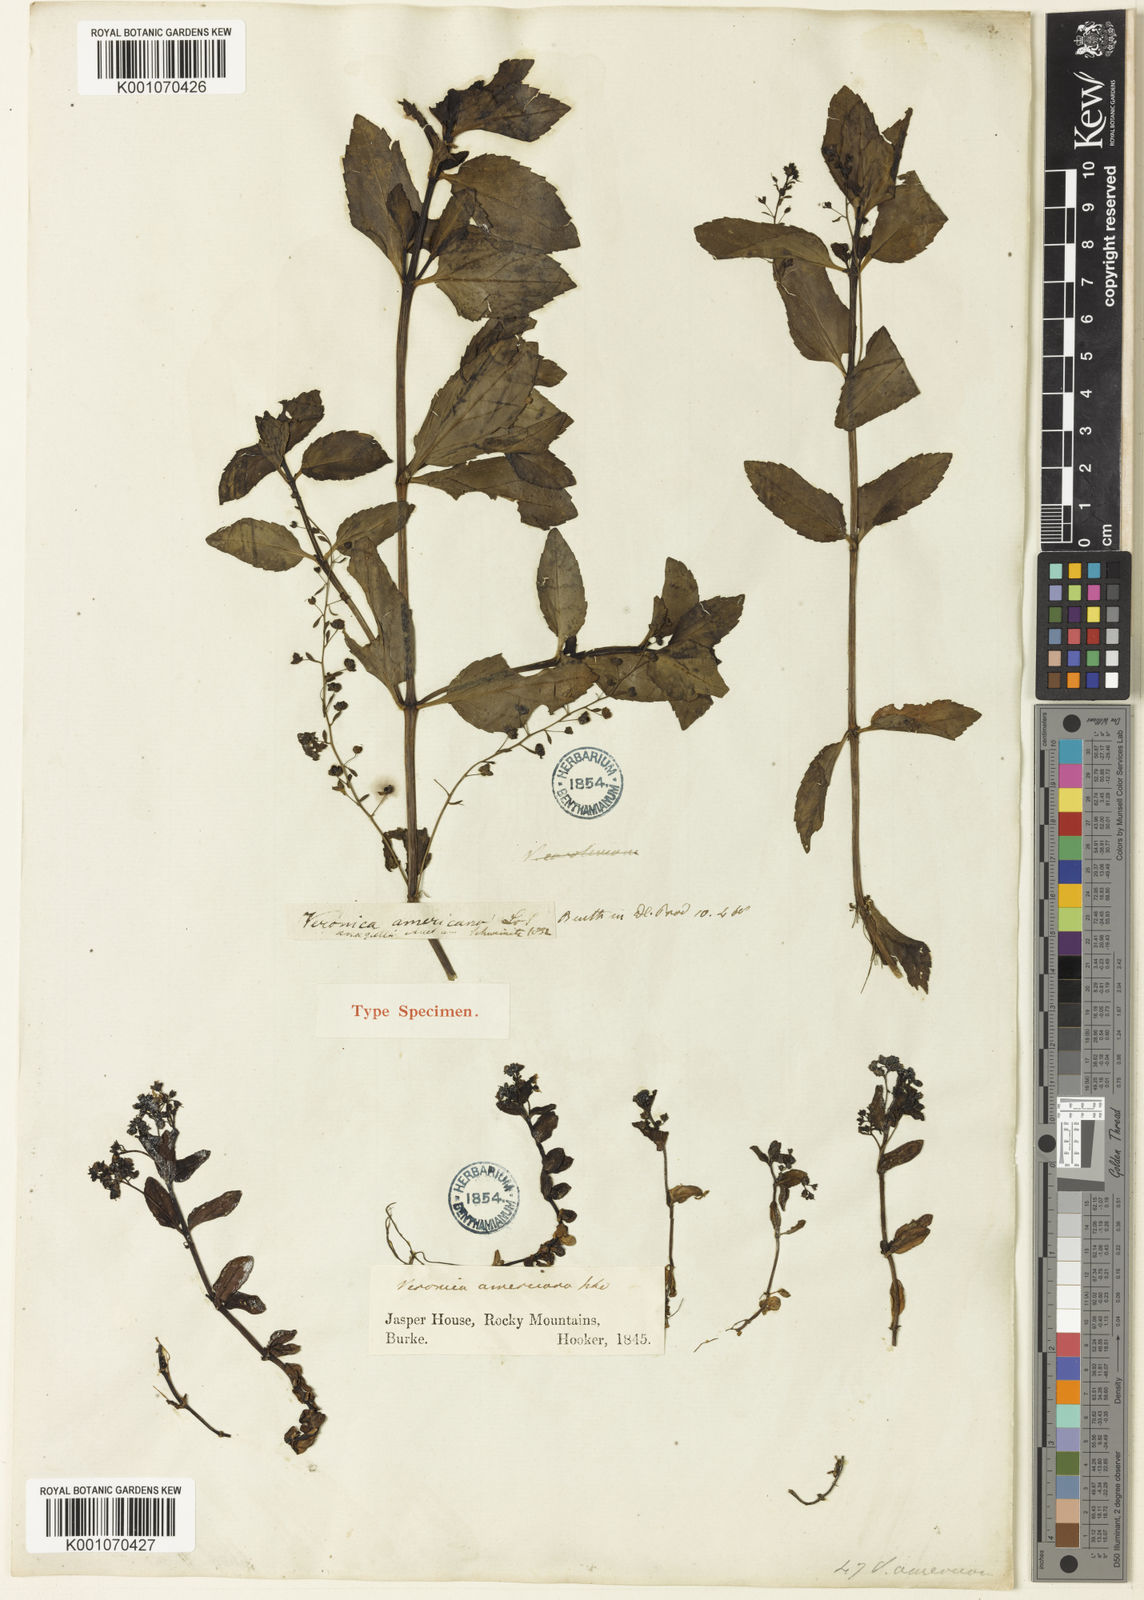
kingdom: Plantae
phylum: Tracheophyta
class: Magnoliopsida
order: Lamiales
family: Plantaginaceae
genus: Veronica
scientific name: Veronica americana
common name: American brooklime
